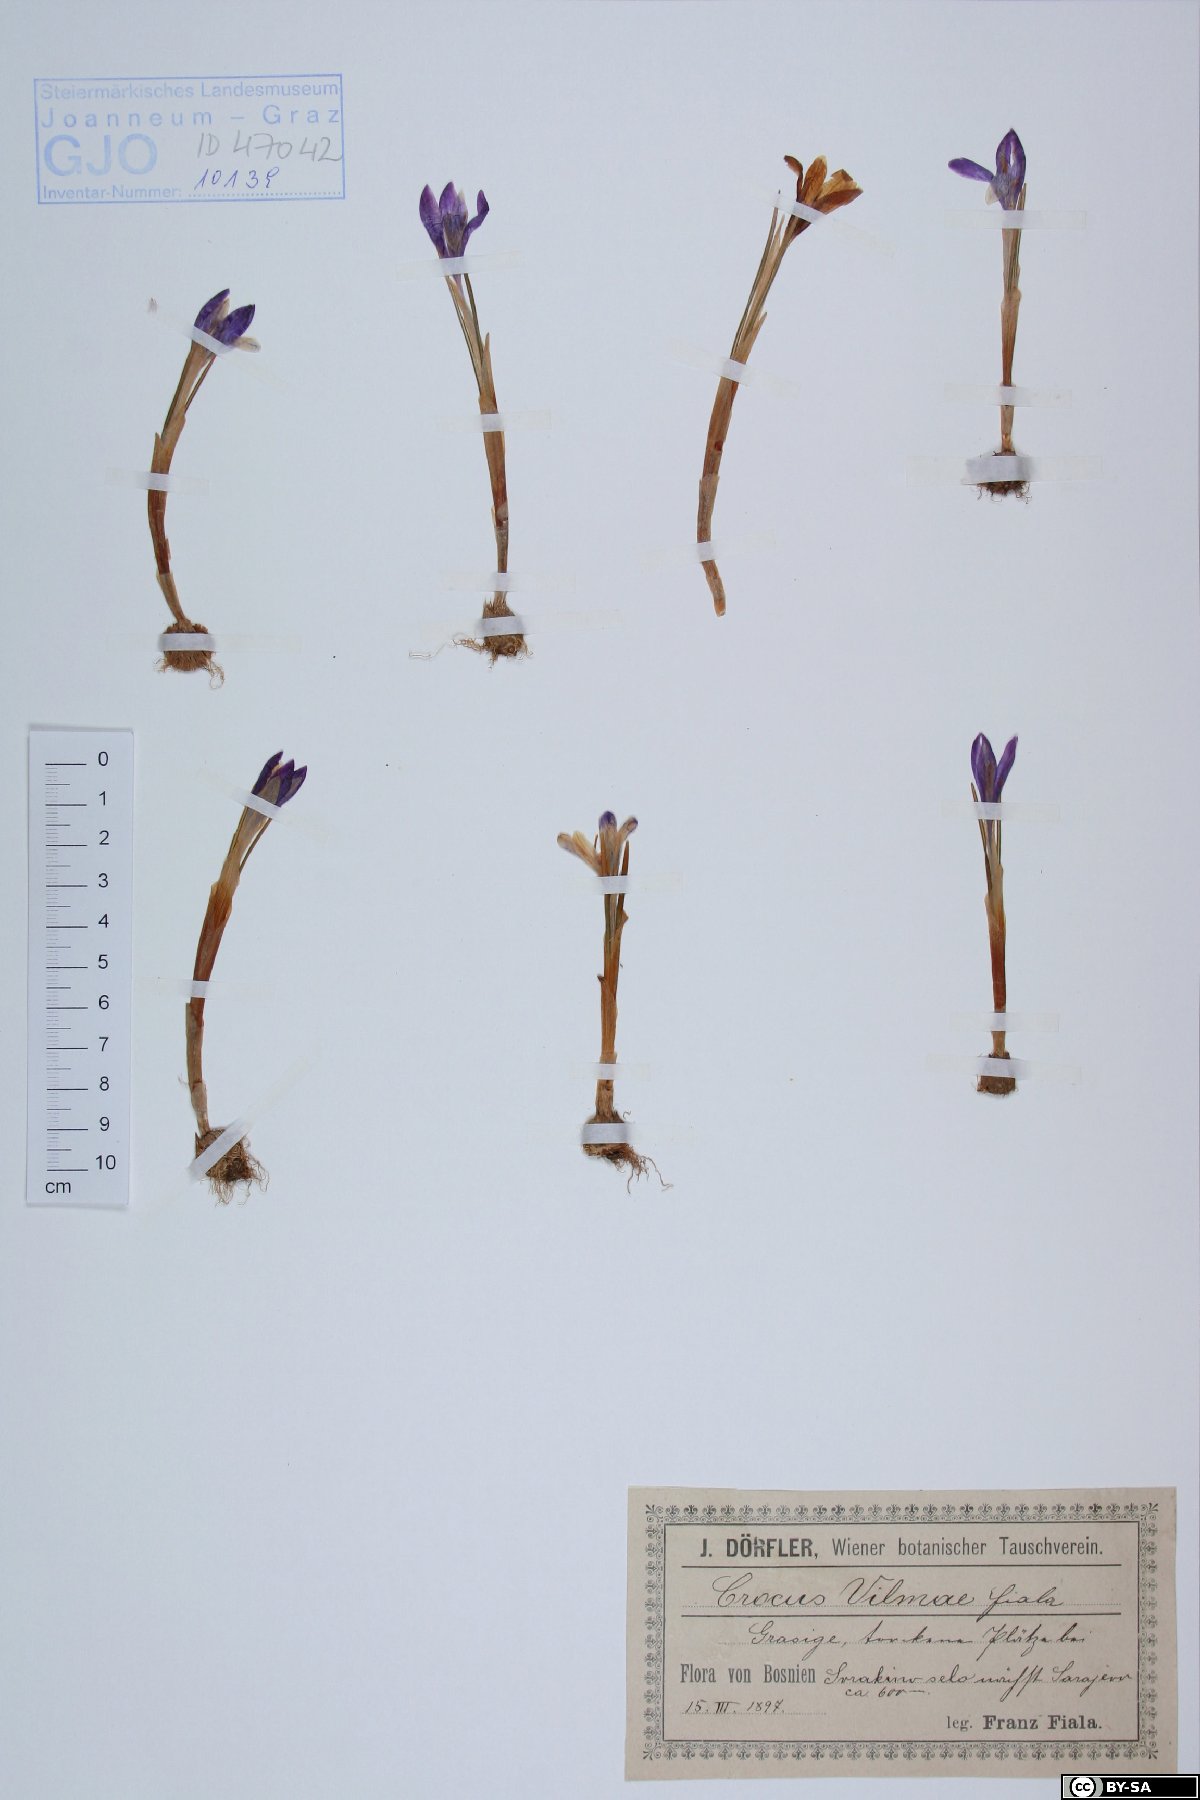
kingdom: Plantae
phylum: Tracheophyta
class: Liliopsida
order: Asparagales
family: Iridaceae
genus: Crocus
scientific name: Crocus vernus
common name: Spring crocus
